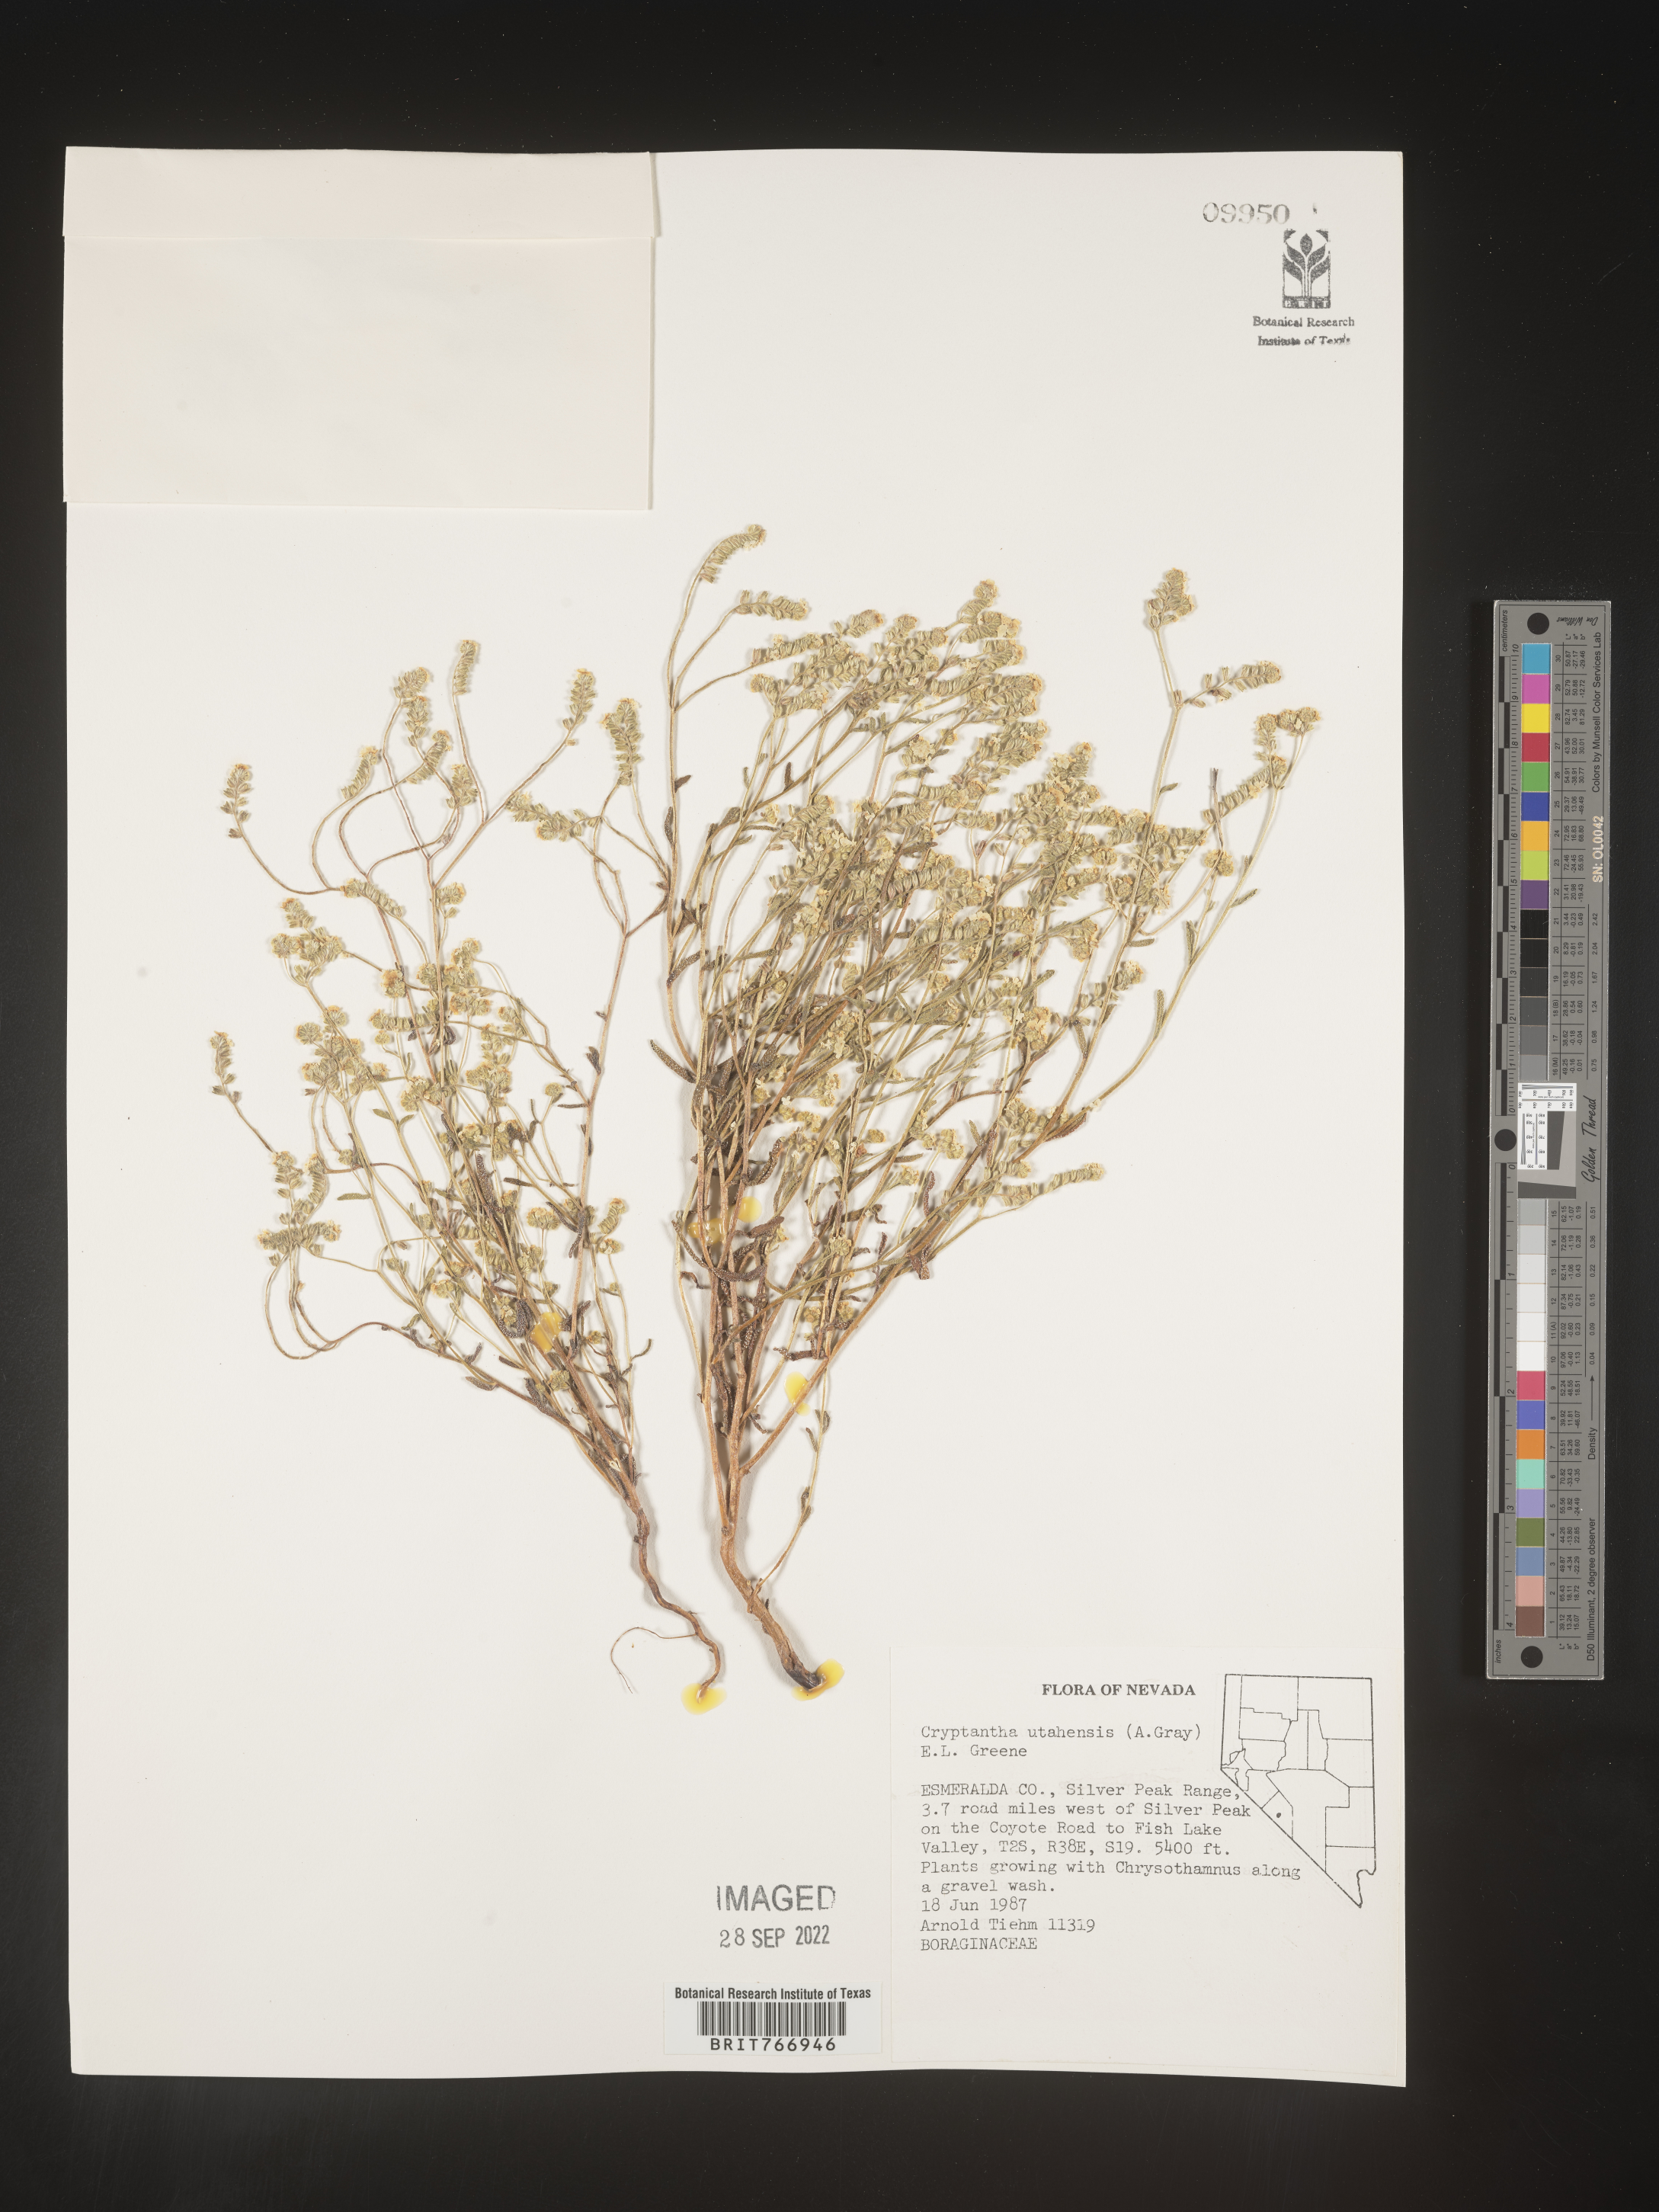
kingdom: Plantae
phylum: Tracheophyta
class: Magnoliopsida
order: Boraginales
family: Boraginaceae
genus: Cryptantha
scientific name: Cryptantha
